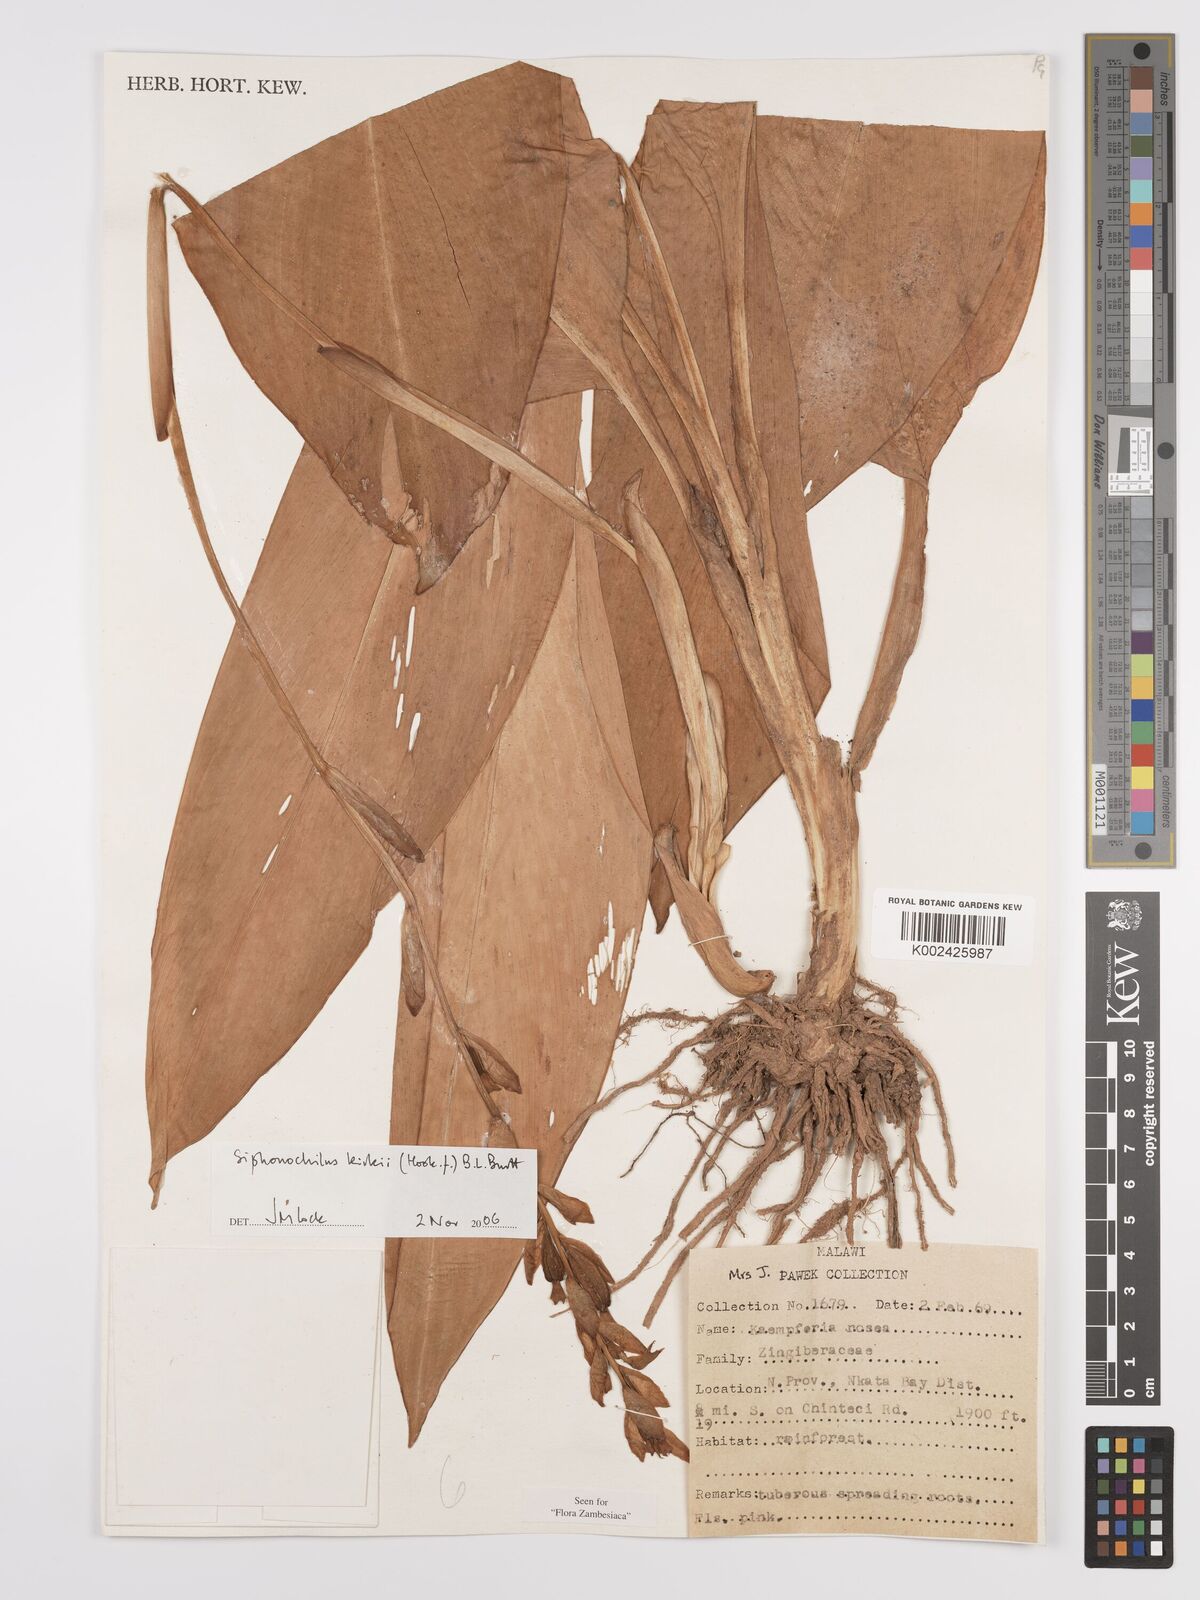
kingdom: Plantae
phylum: Tracheophyta
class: Liliopsida
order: Zingiberales
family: Zingiberaceae
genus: Siphonochilus
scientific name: Siphonochilus kirkii
